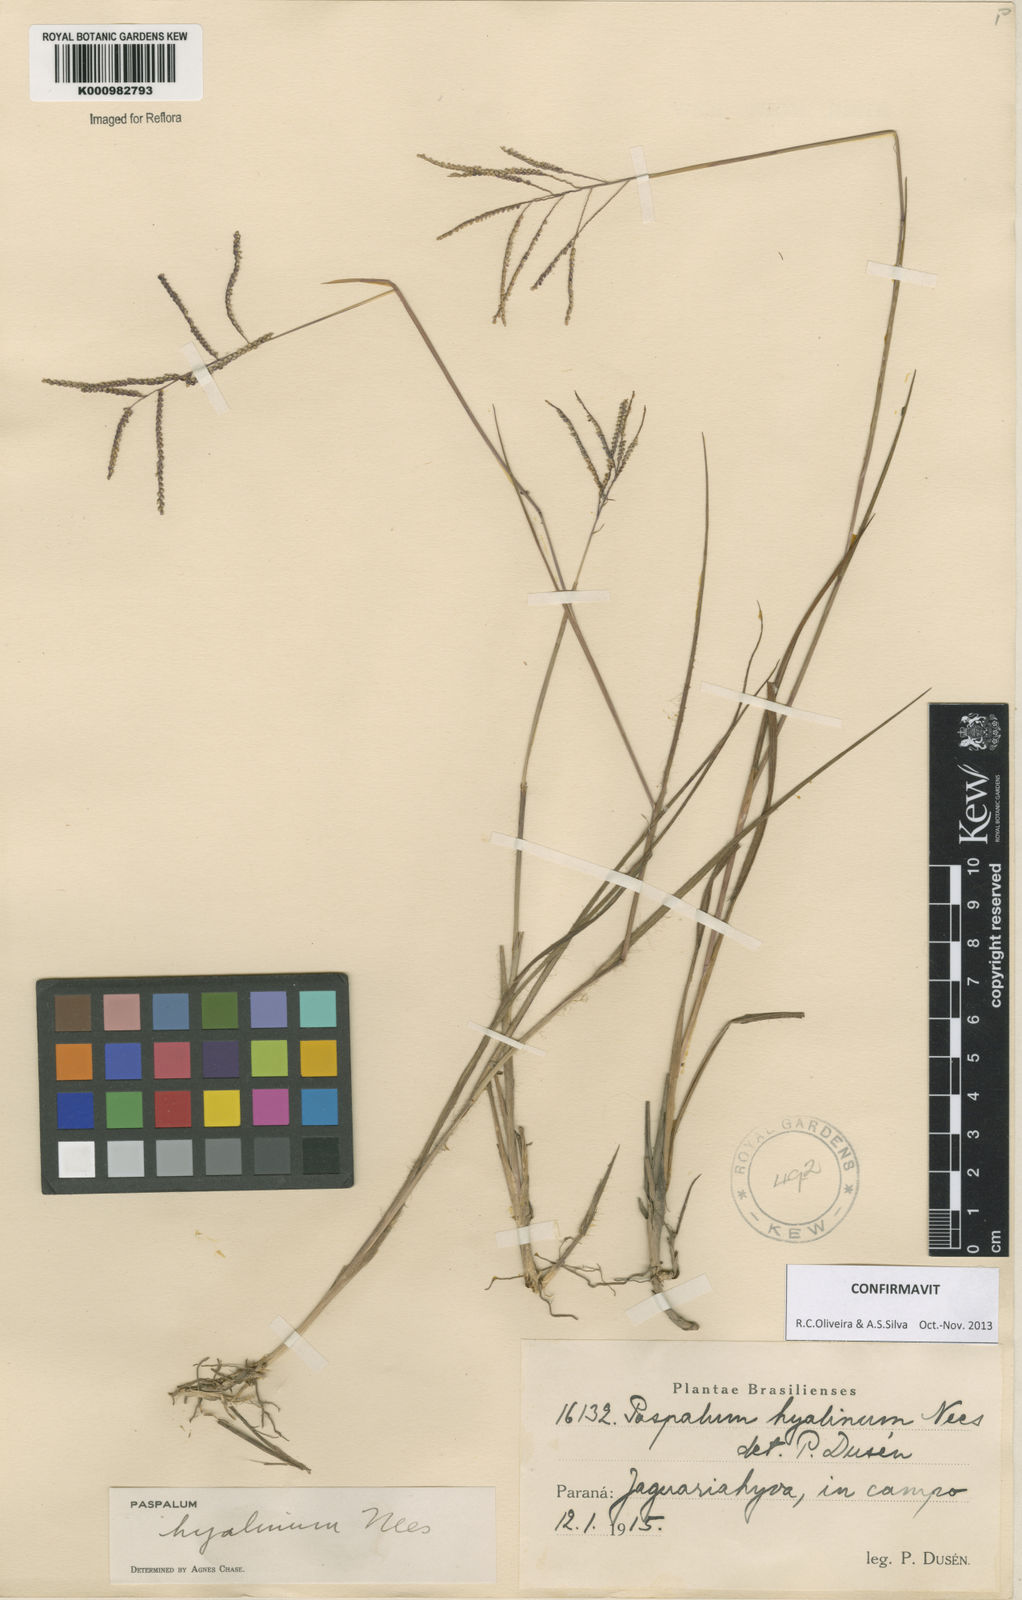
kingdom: Plantae
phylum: Tracheophyta
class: Liliopsida
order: Poales
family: Poaceae
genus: Paspalum
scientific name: Paspalum hyalinum
